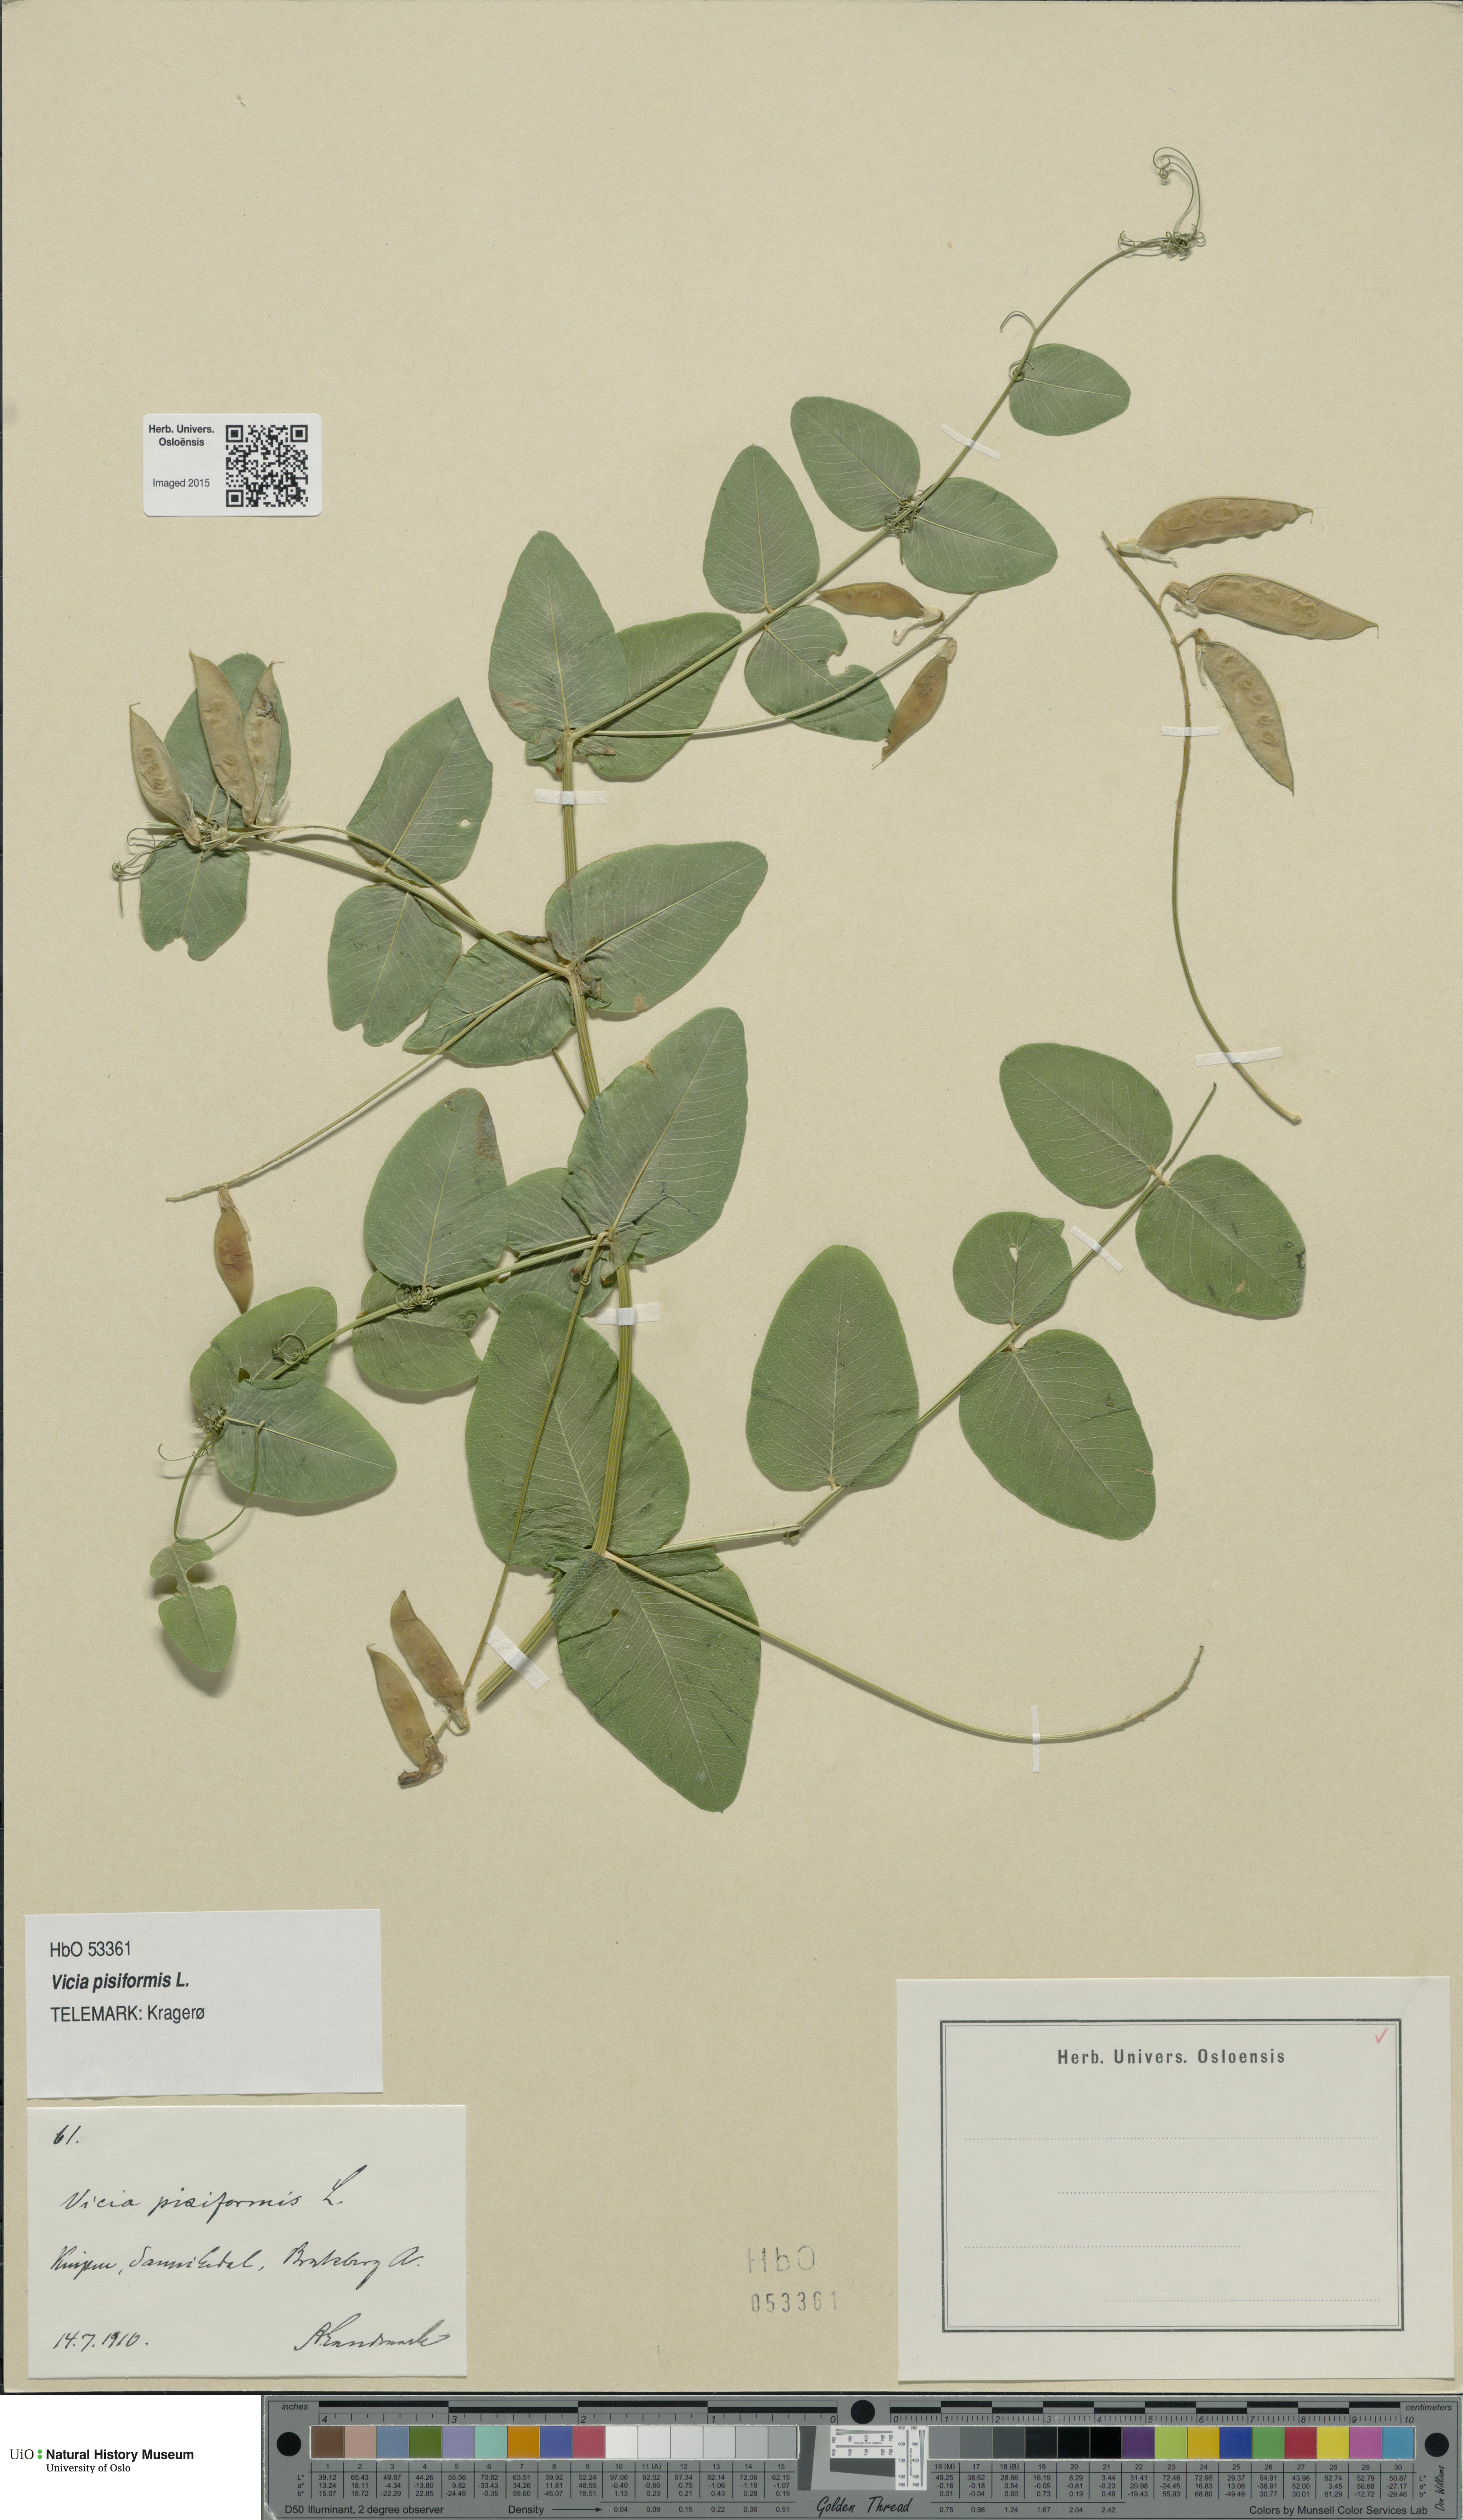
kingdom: Plantae
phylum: Tracheophyta
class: Magnoliopsida
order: Fabales
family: Fabaceae
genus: Vicia
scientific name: Vicia pisiformis
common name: Pale-flower vetch
